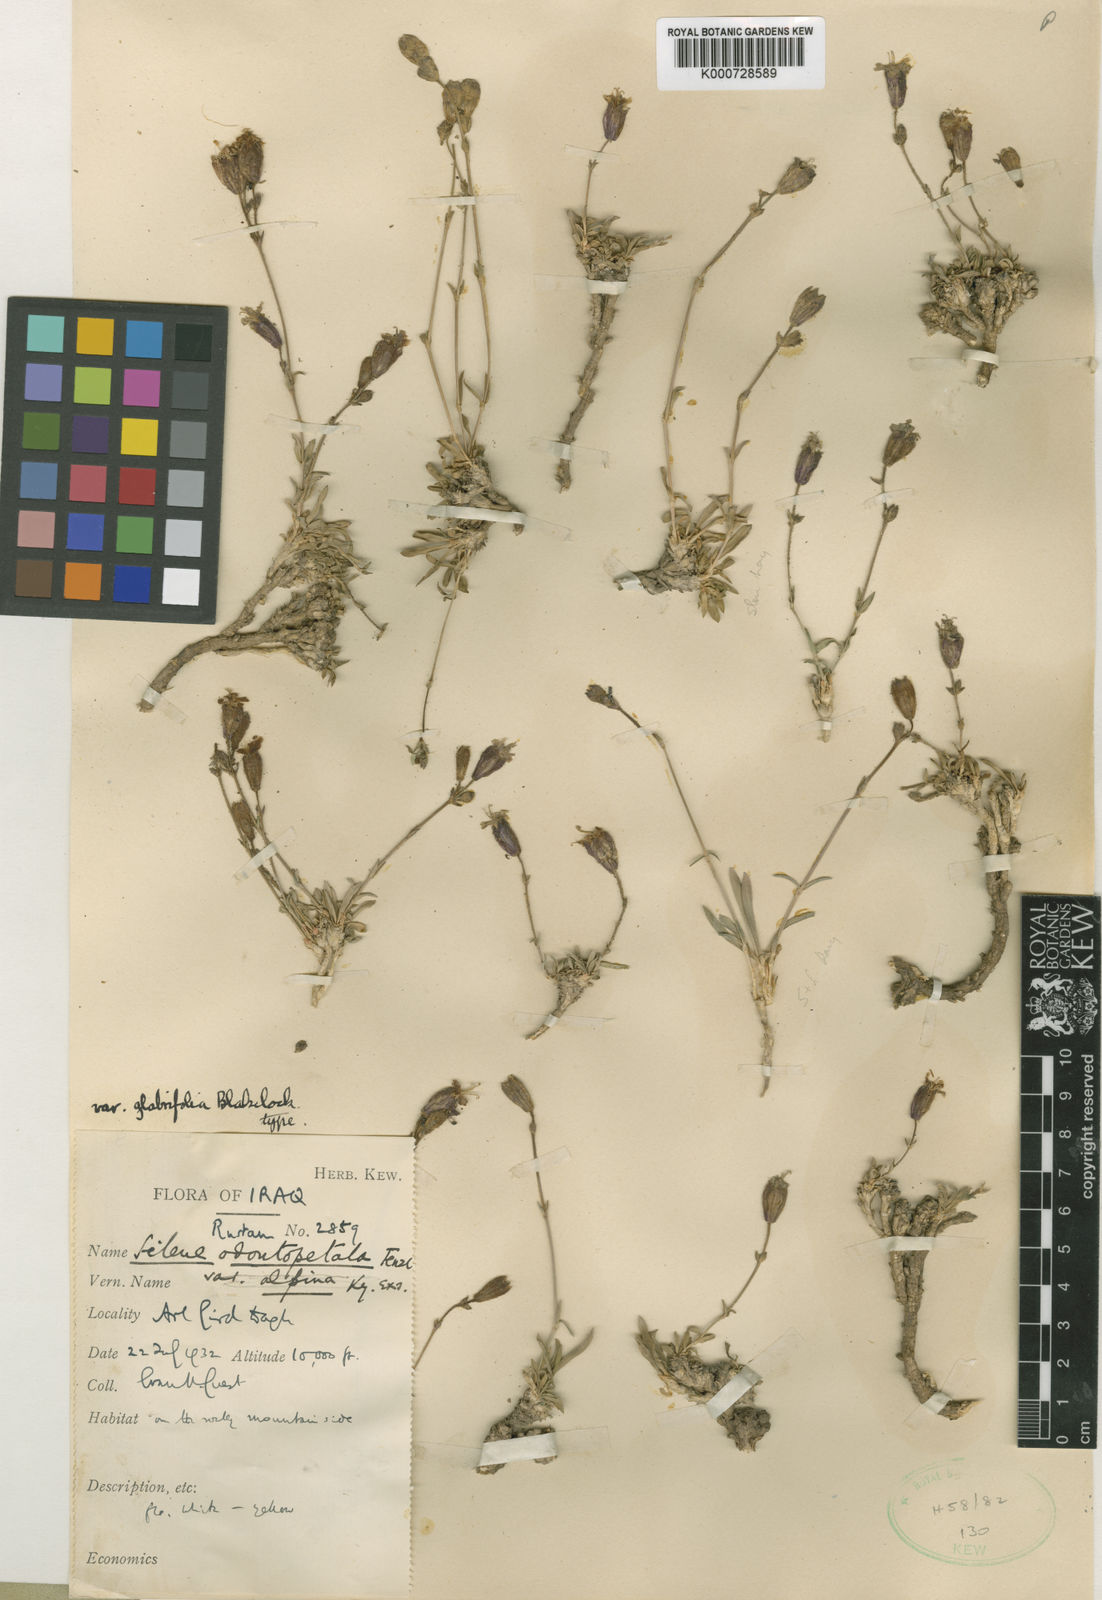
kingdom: Plantae
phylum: Tracheophyta
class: Magnoliopsida
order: Caryophyllales
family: Caryophyllaceae
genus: Silene
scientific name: Silene odontopetala
